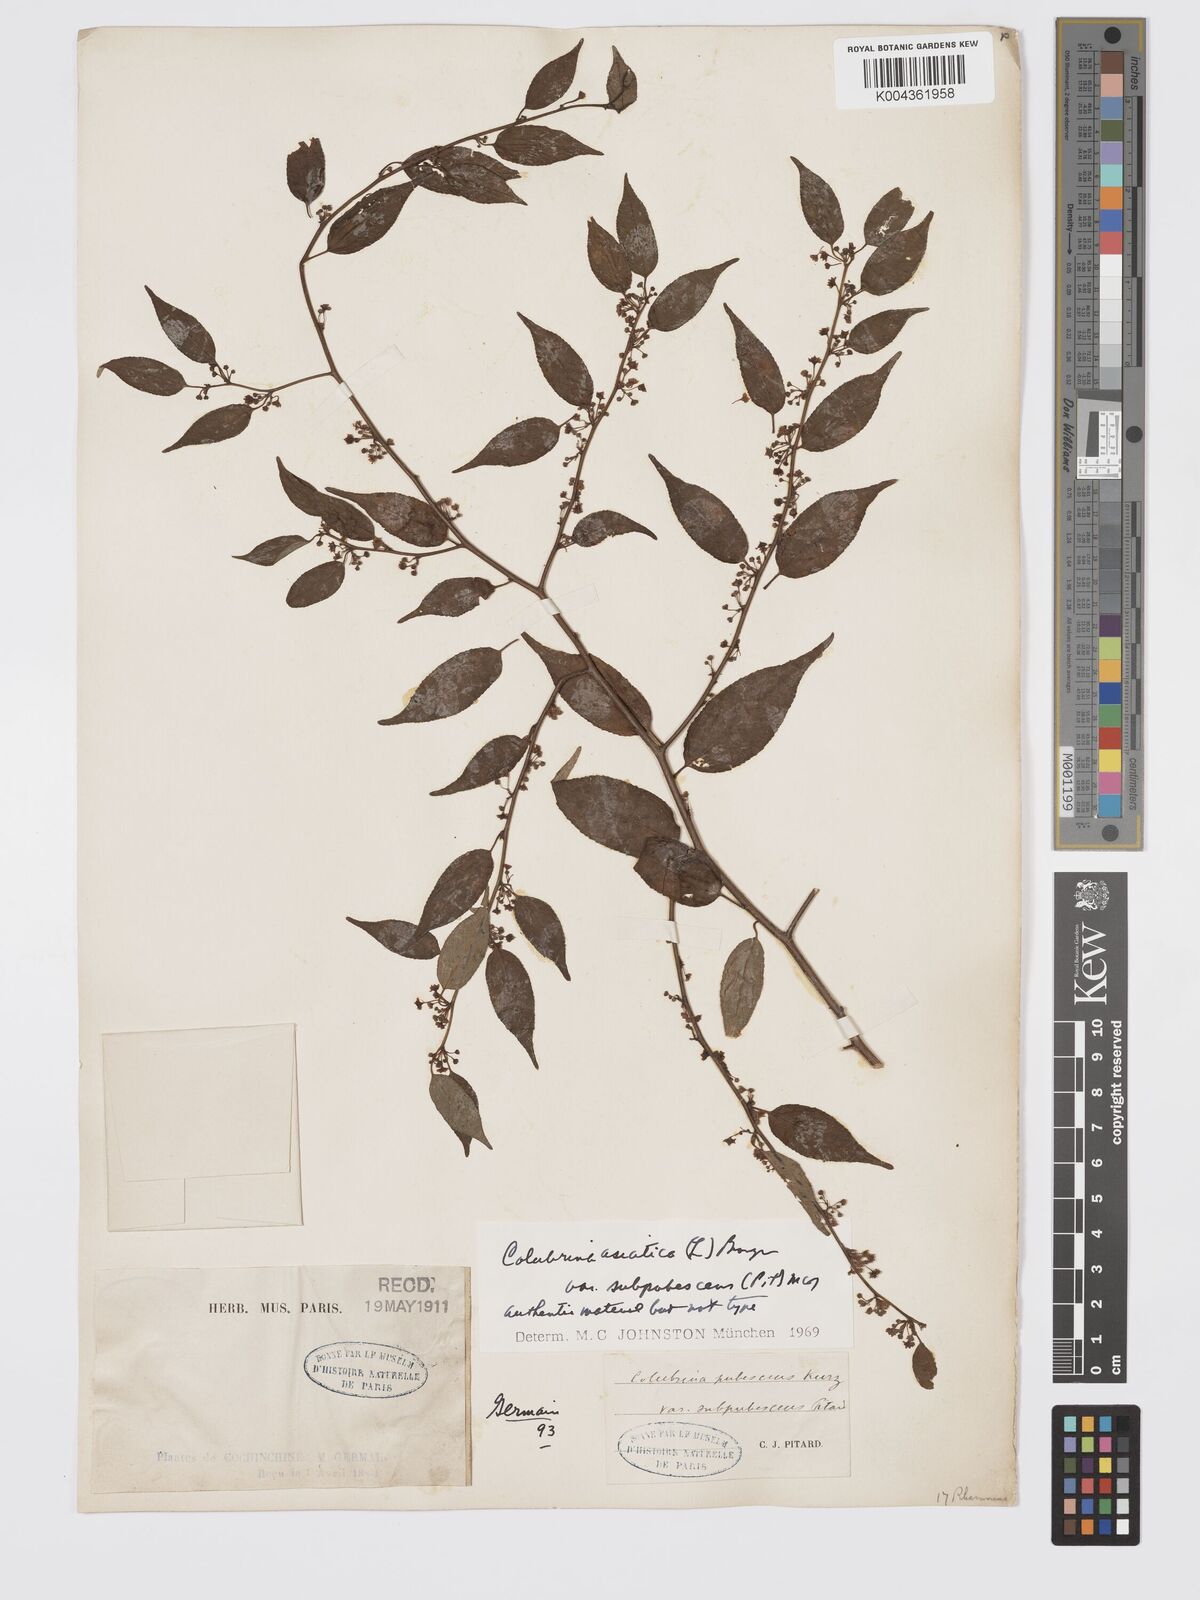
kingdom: Plantae
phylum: Tracheophyta
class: Magnoliopsida
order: Rosales
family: Rhamnaceae
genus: Colubrina
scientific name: Colubrina asiatica
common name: Asian nakedwood
